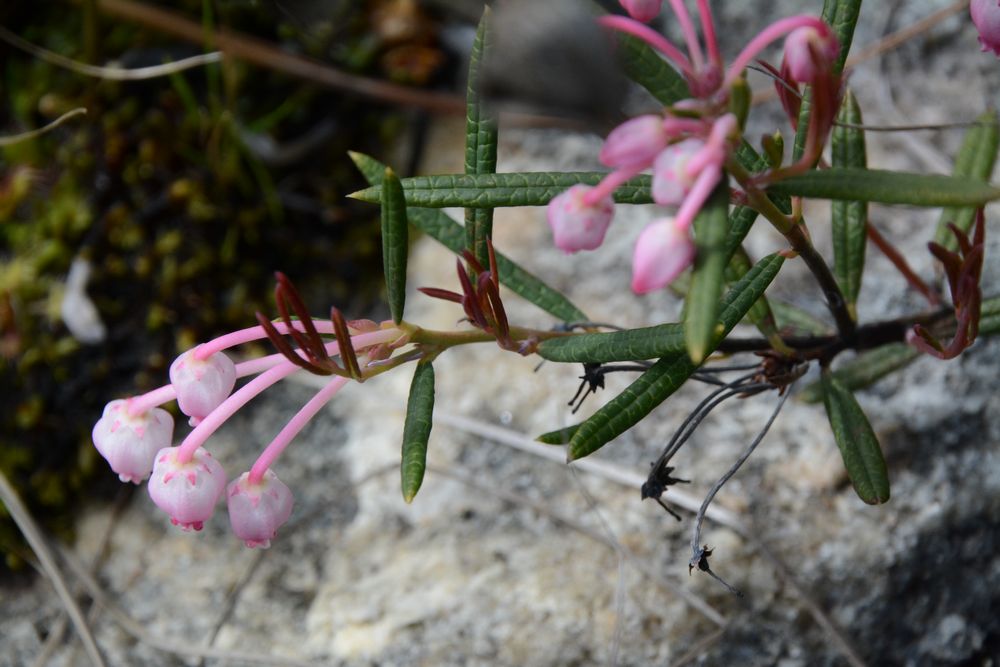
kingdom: Plantae
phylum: Tracheophyta
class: Magnoliopsida
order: Ericales
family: Ericaceae
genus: Andromeda
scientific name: Andromeda polifolia
